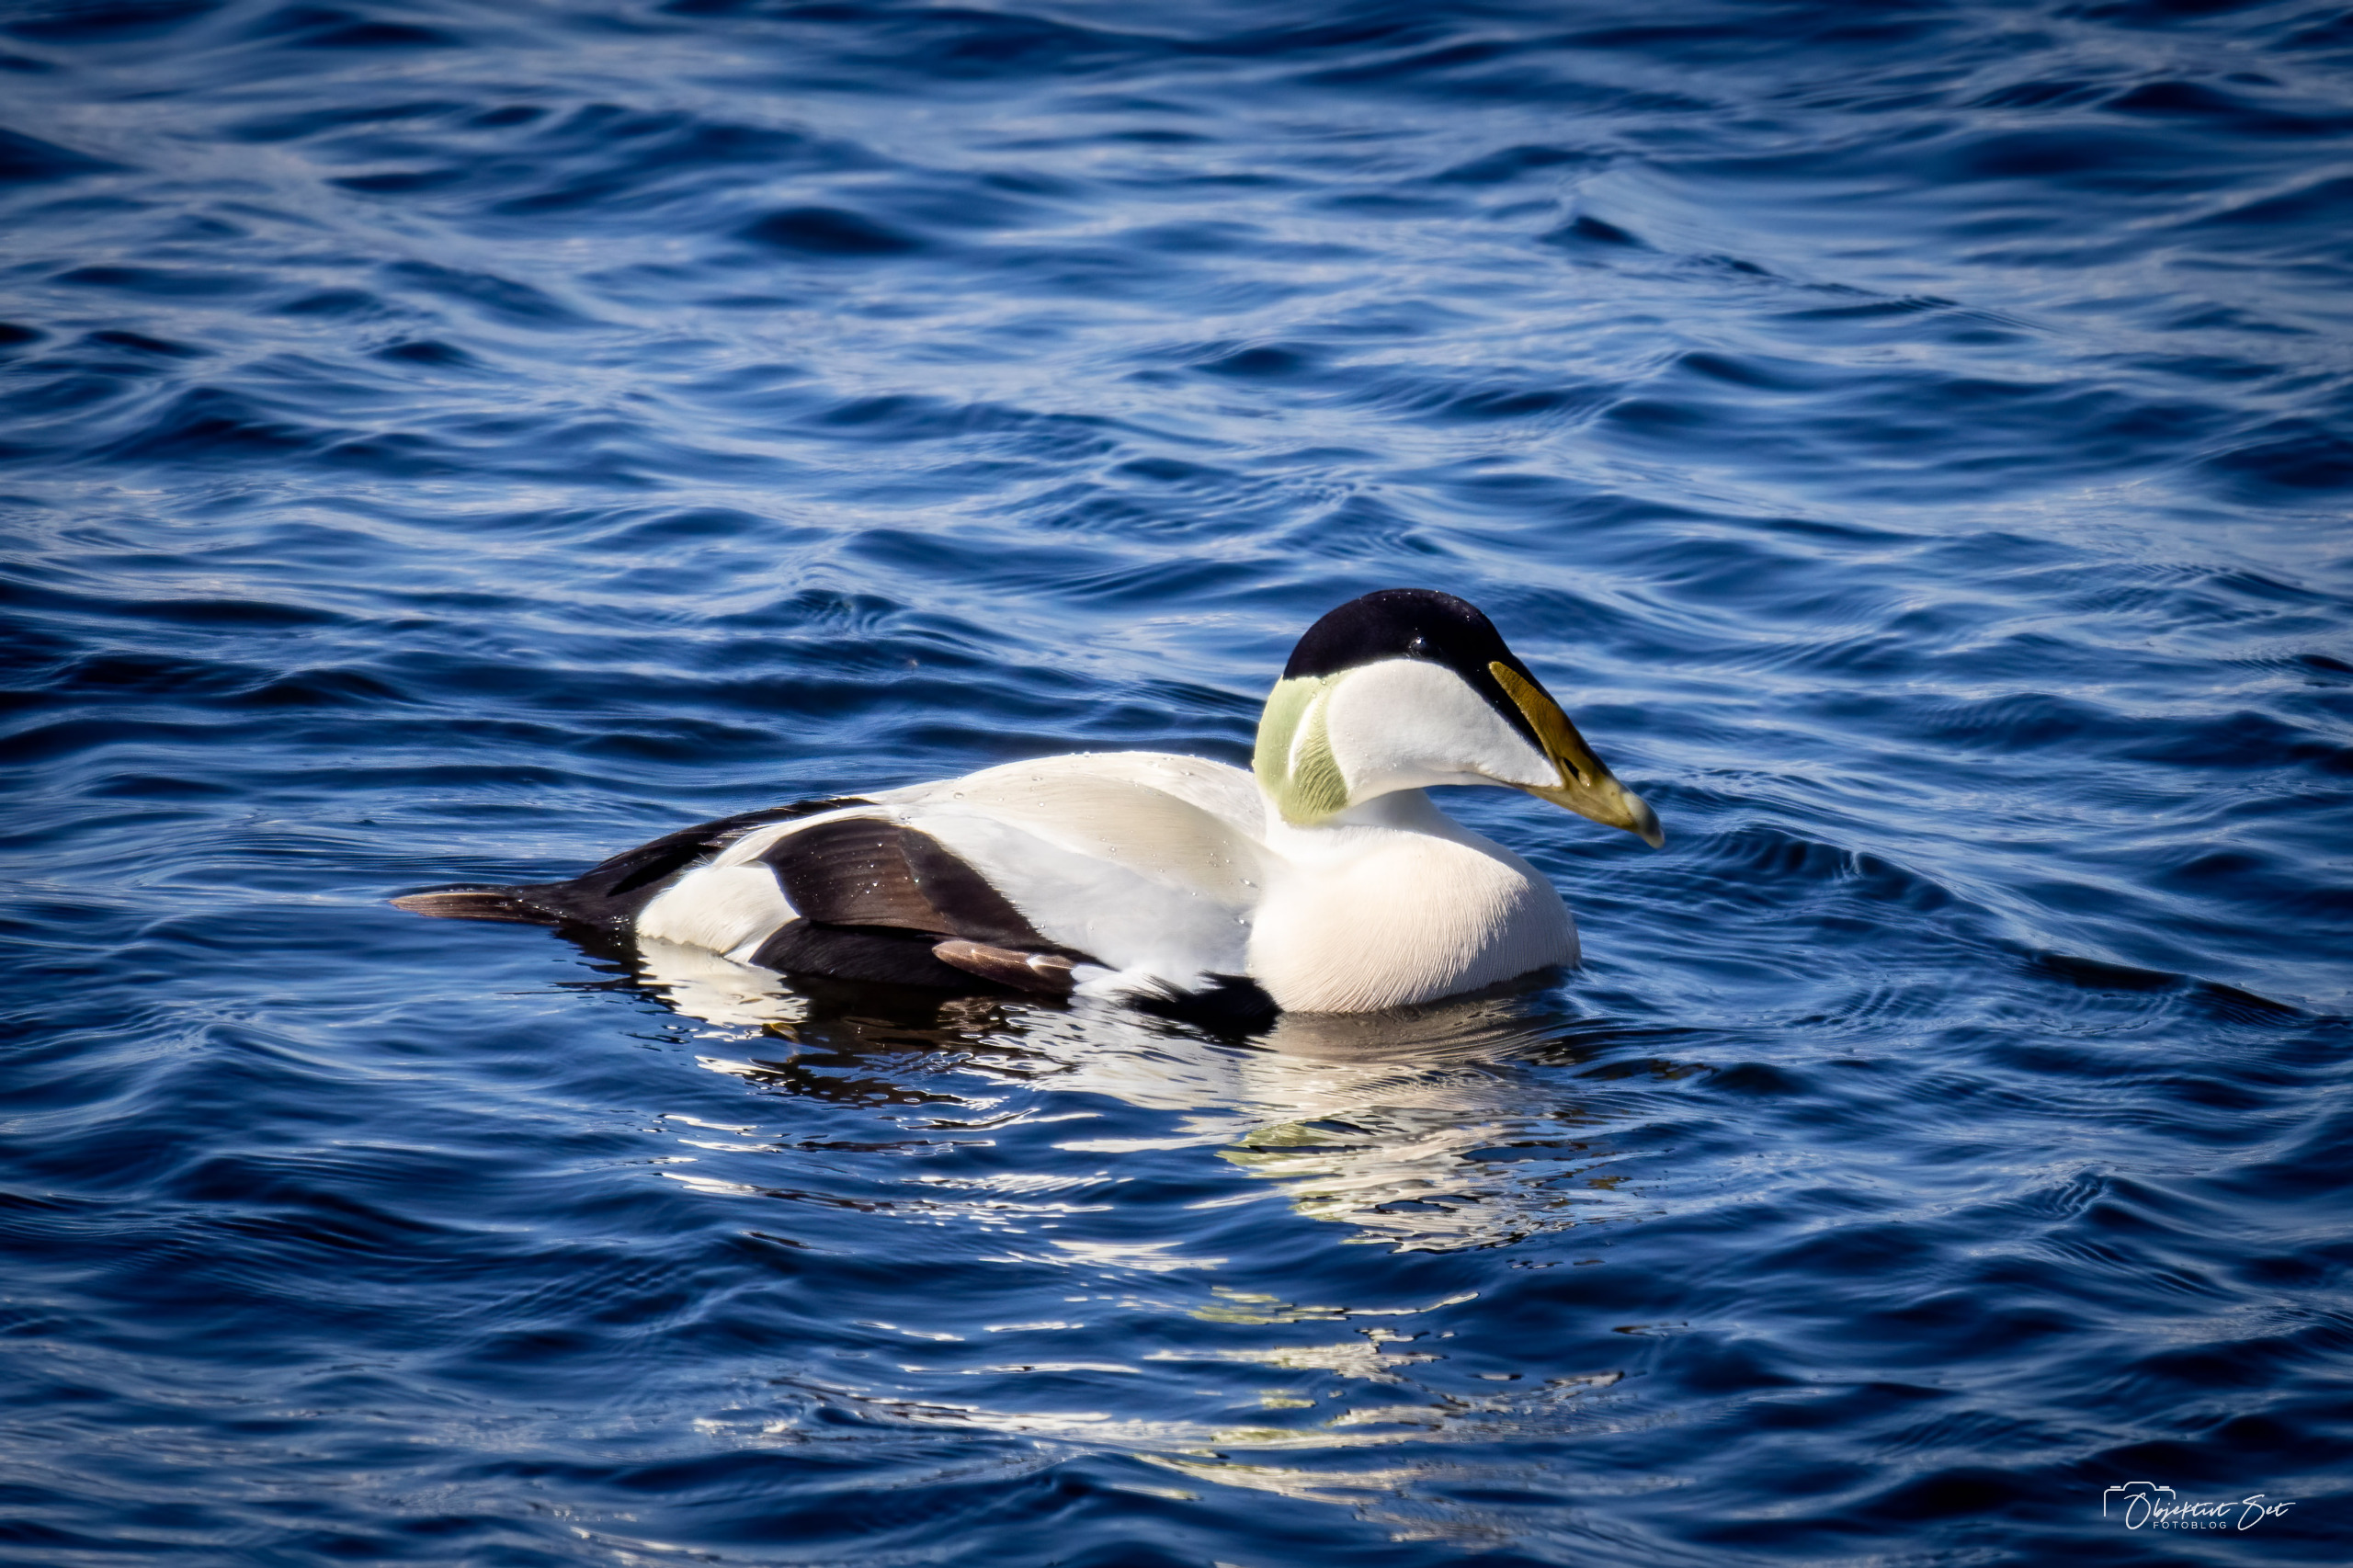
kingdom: Animalia
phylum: Chordata
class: Aves
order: Anseriformes
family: Anatidae
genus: Somateria
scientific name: Somateria mollissima
